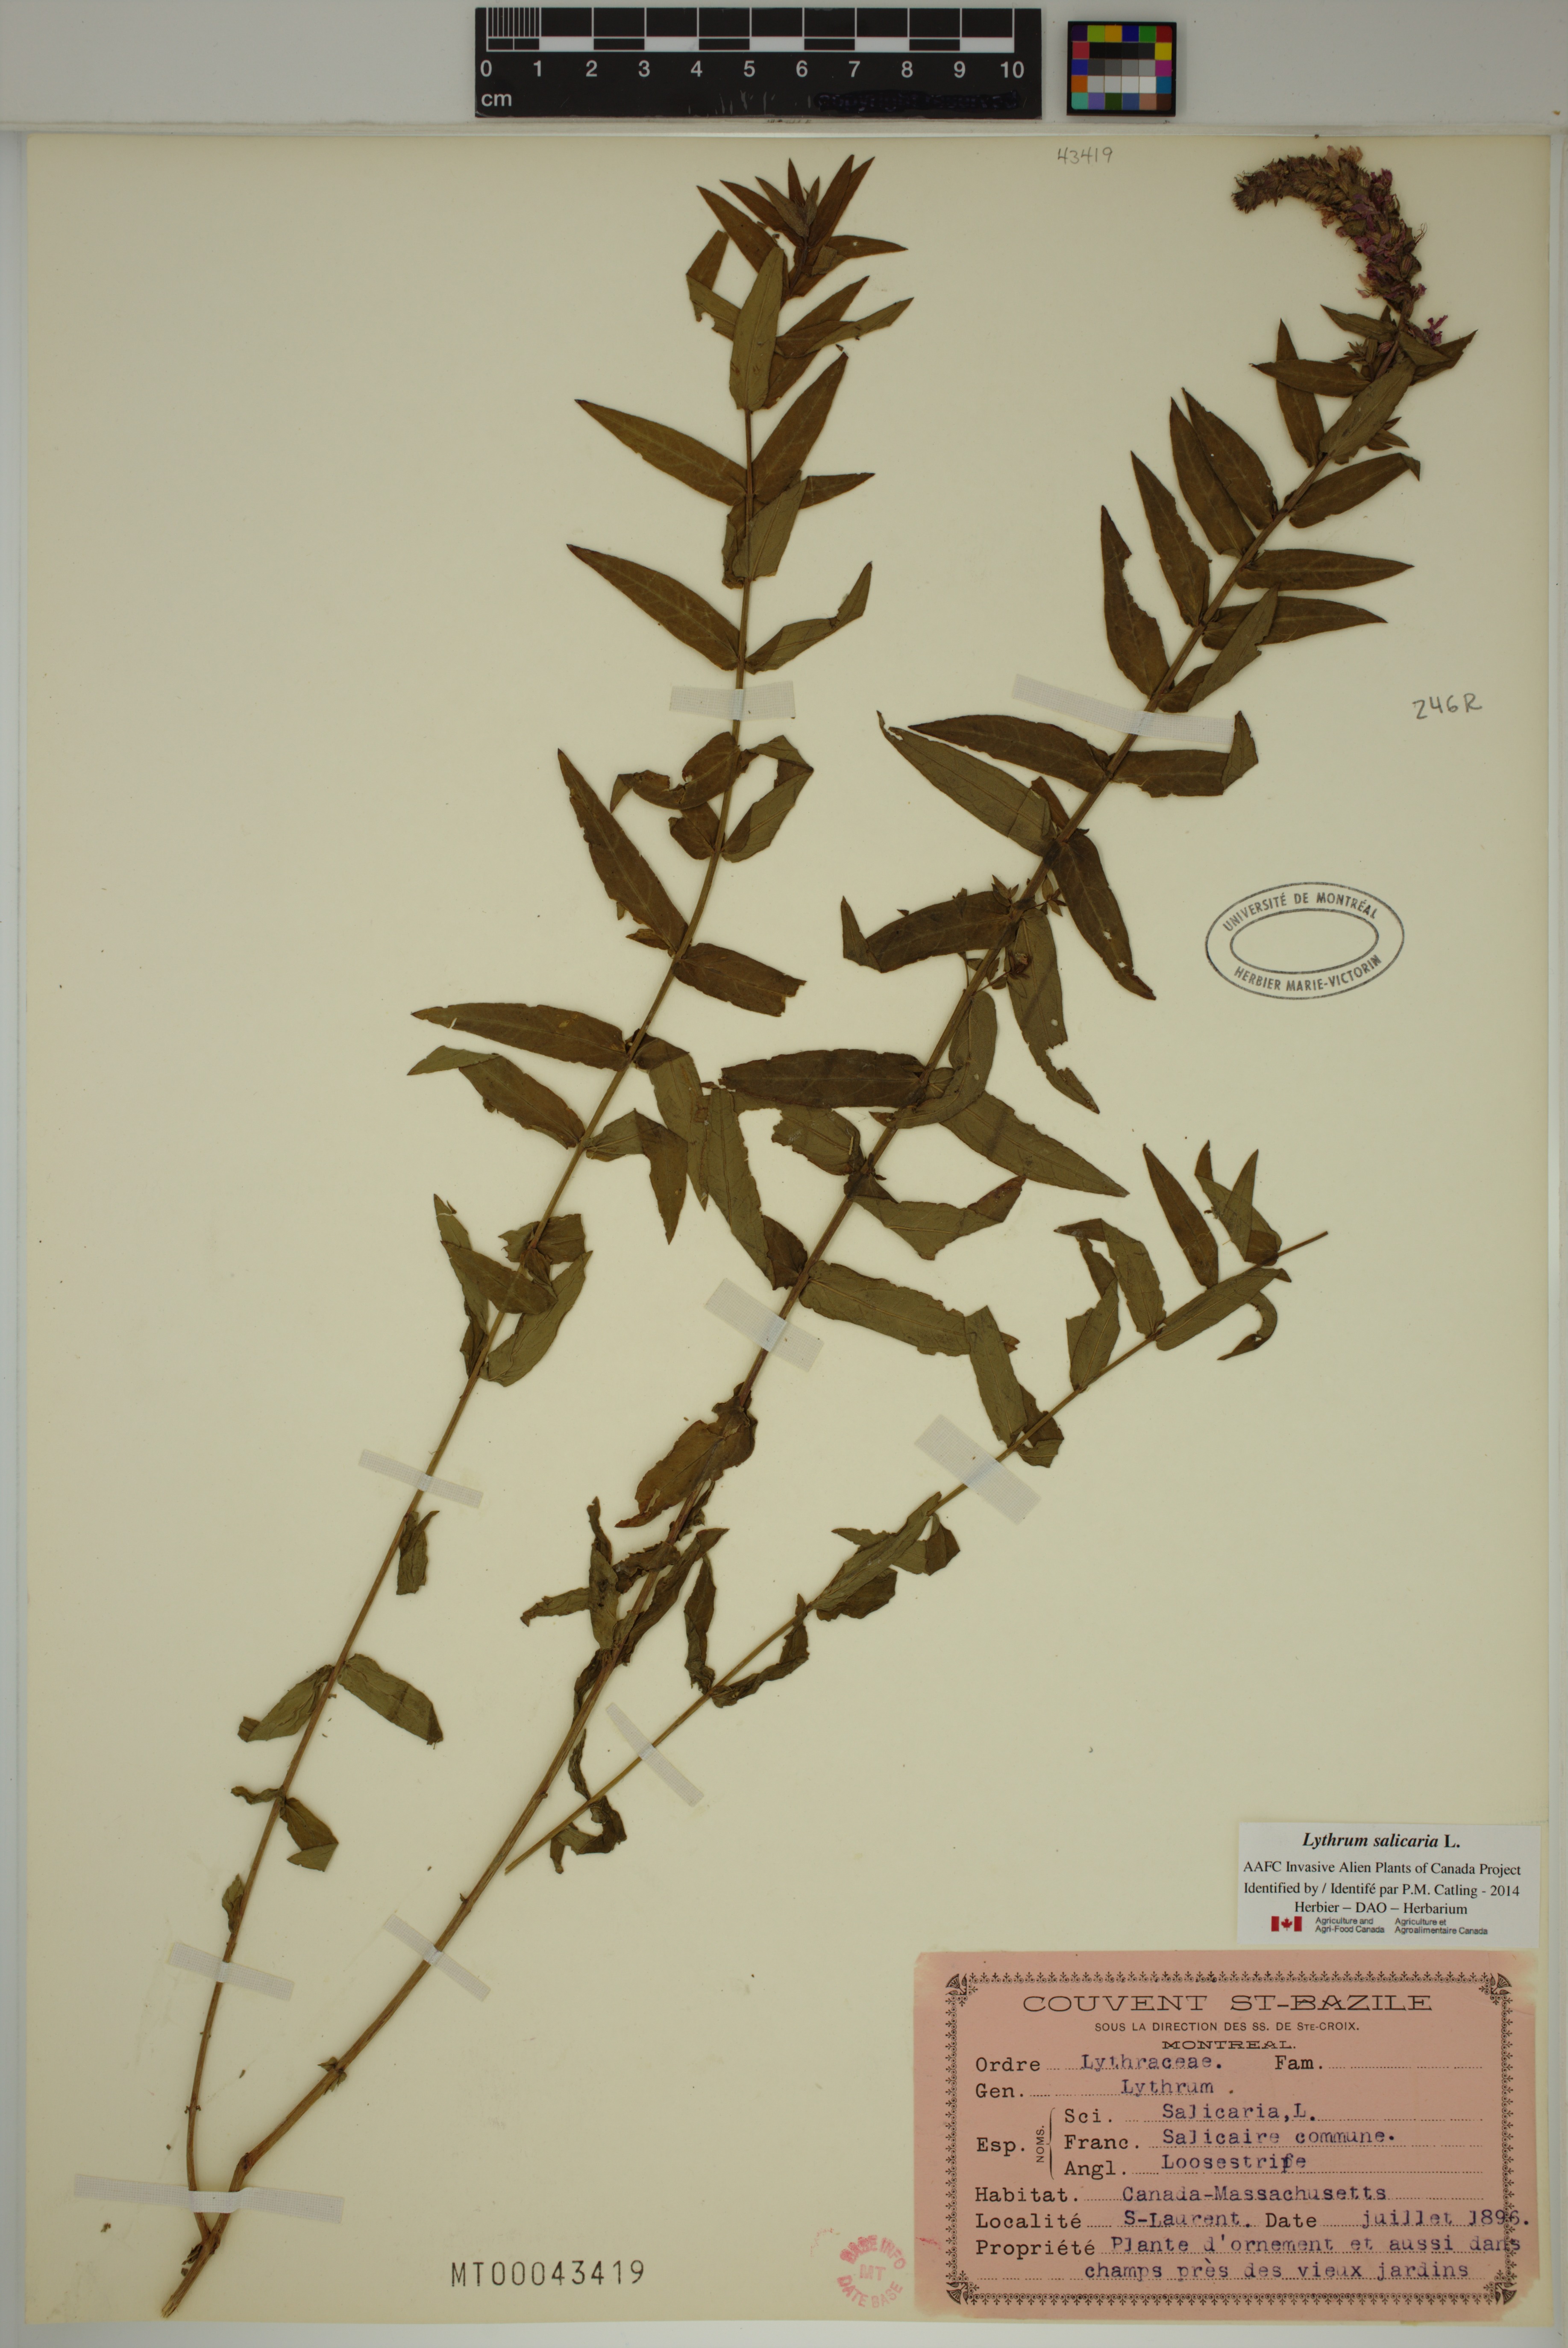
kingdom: Plantae
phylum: Tracheophyta
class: Magnoliopsida
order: Myrtales
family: Lythraceae
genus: Lythrum
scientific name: Lythrum salicaria
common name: Purple loosestrife
